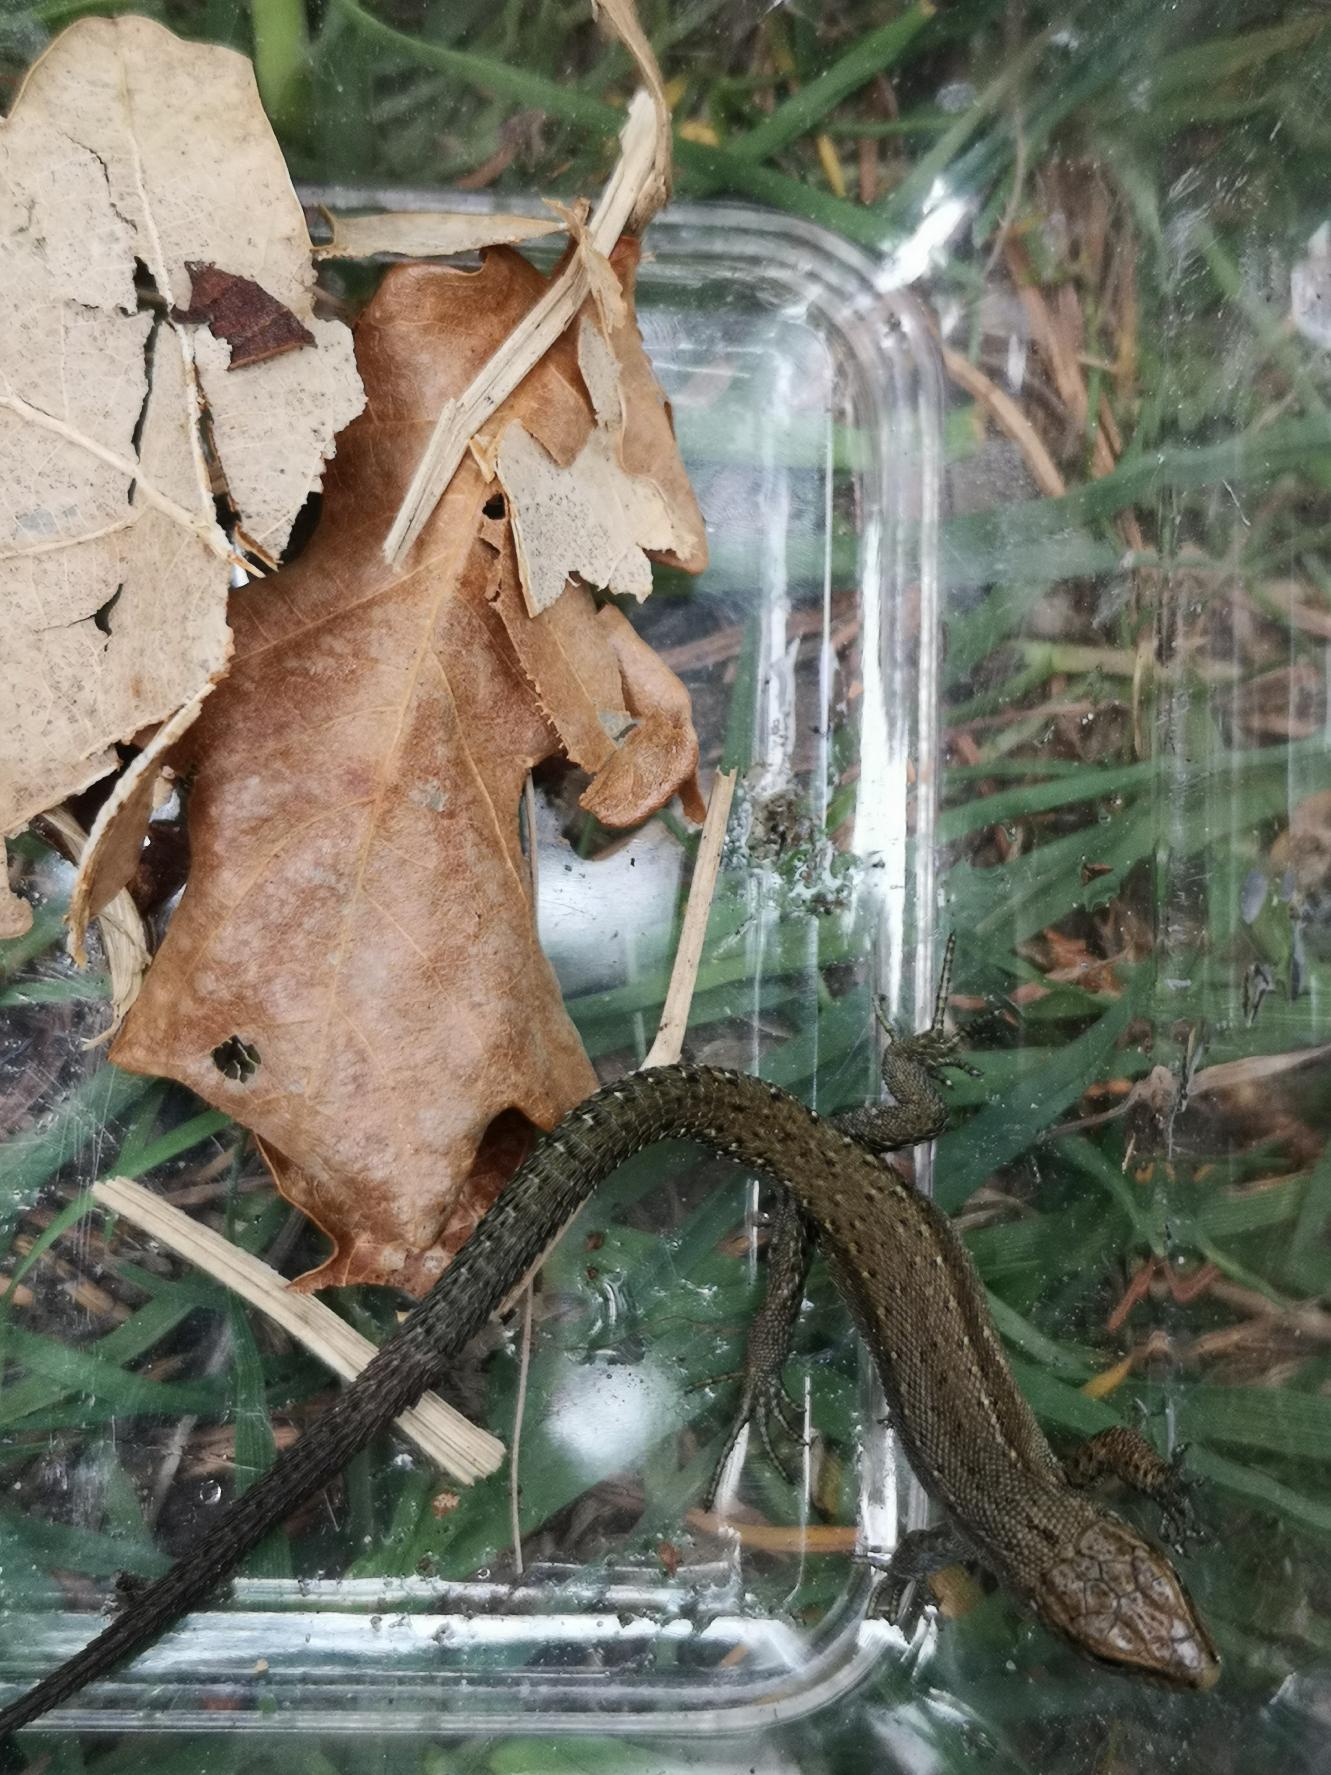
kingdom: Animalia
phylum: Chordata
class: Squamata
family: Lacertidae
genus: Zootoca
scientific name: Zootoca vivipara
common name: Skovfirben
